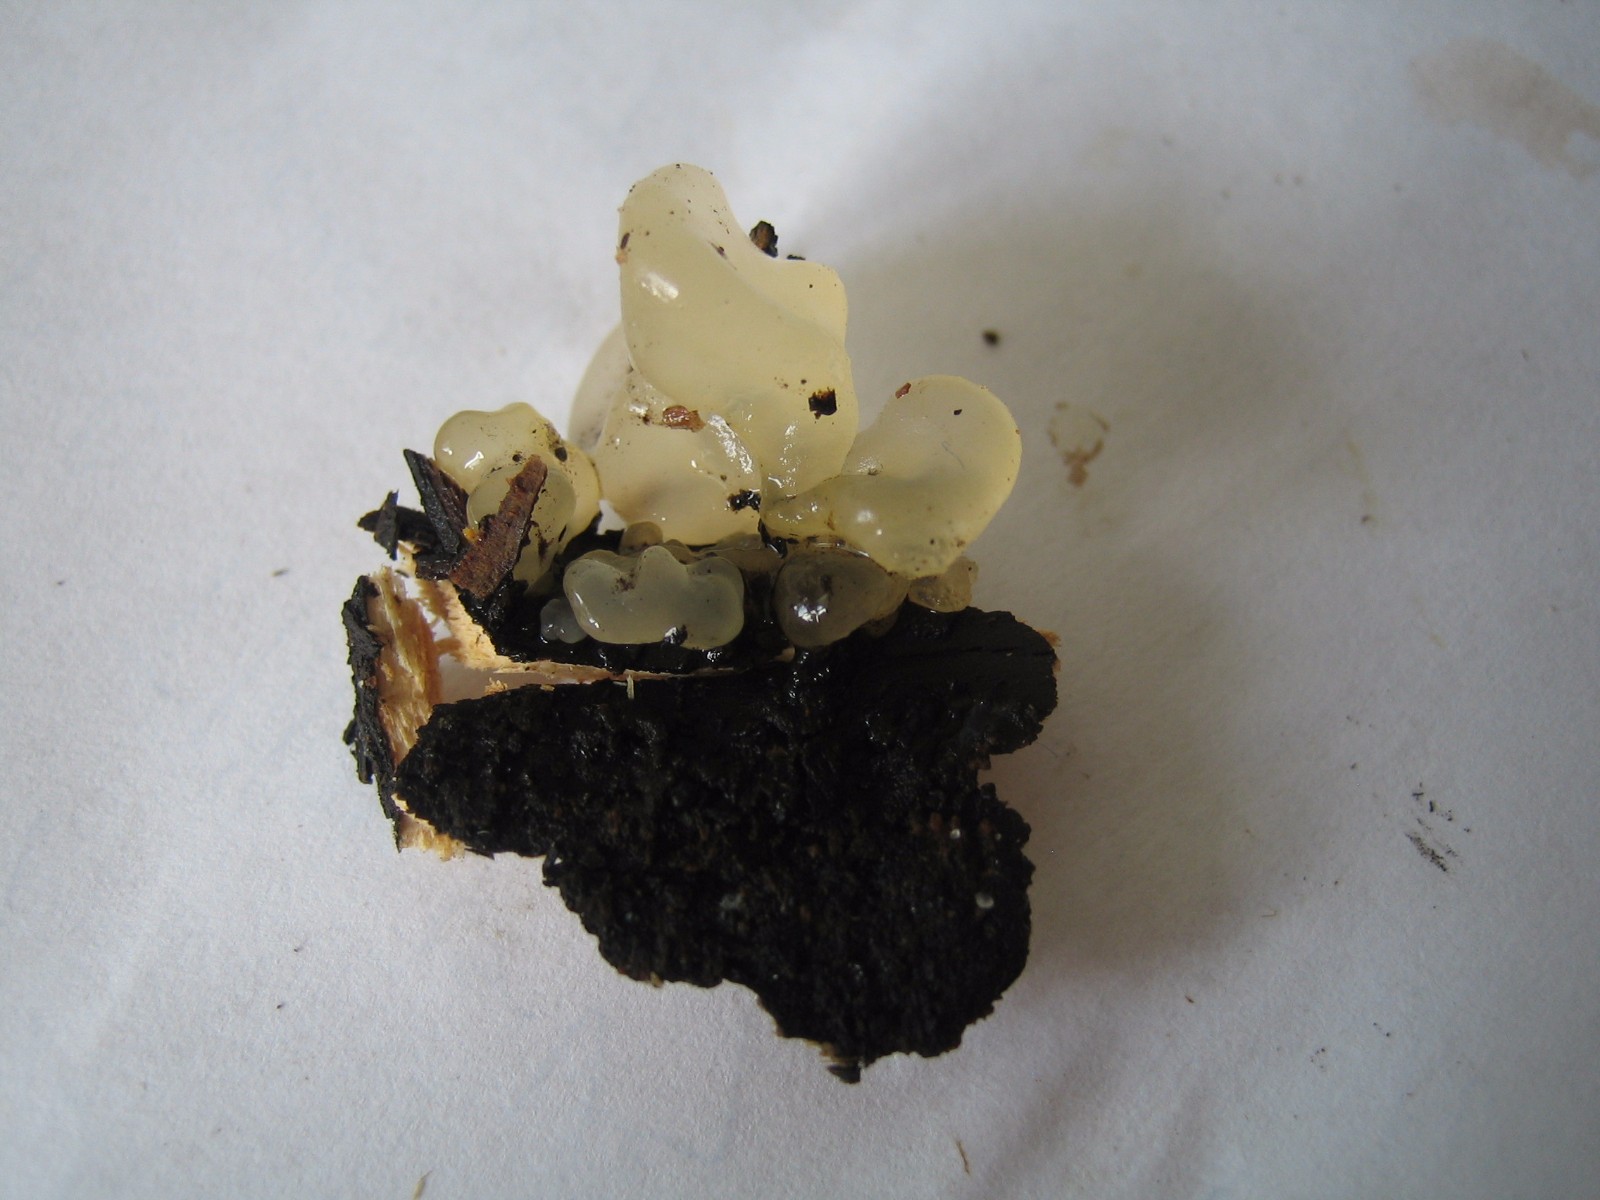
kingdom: Fungi
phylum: Basidiomycota
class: Tremellomycetes
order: Tremellales
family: Tremellaceae
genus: Tremella
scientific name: Tremella mesenterica
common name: gul bævresvamp
